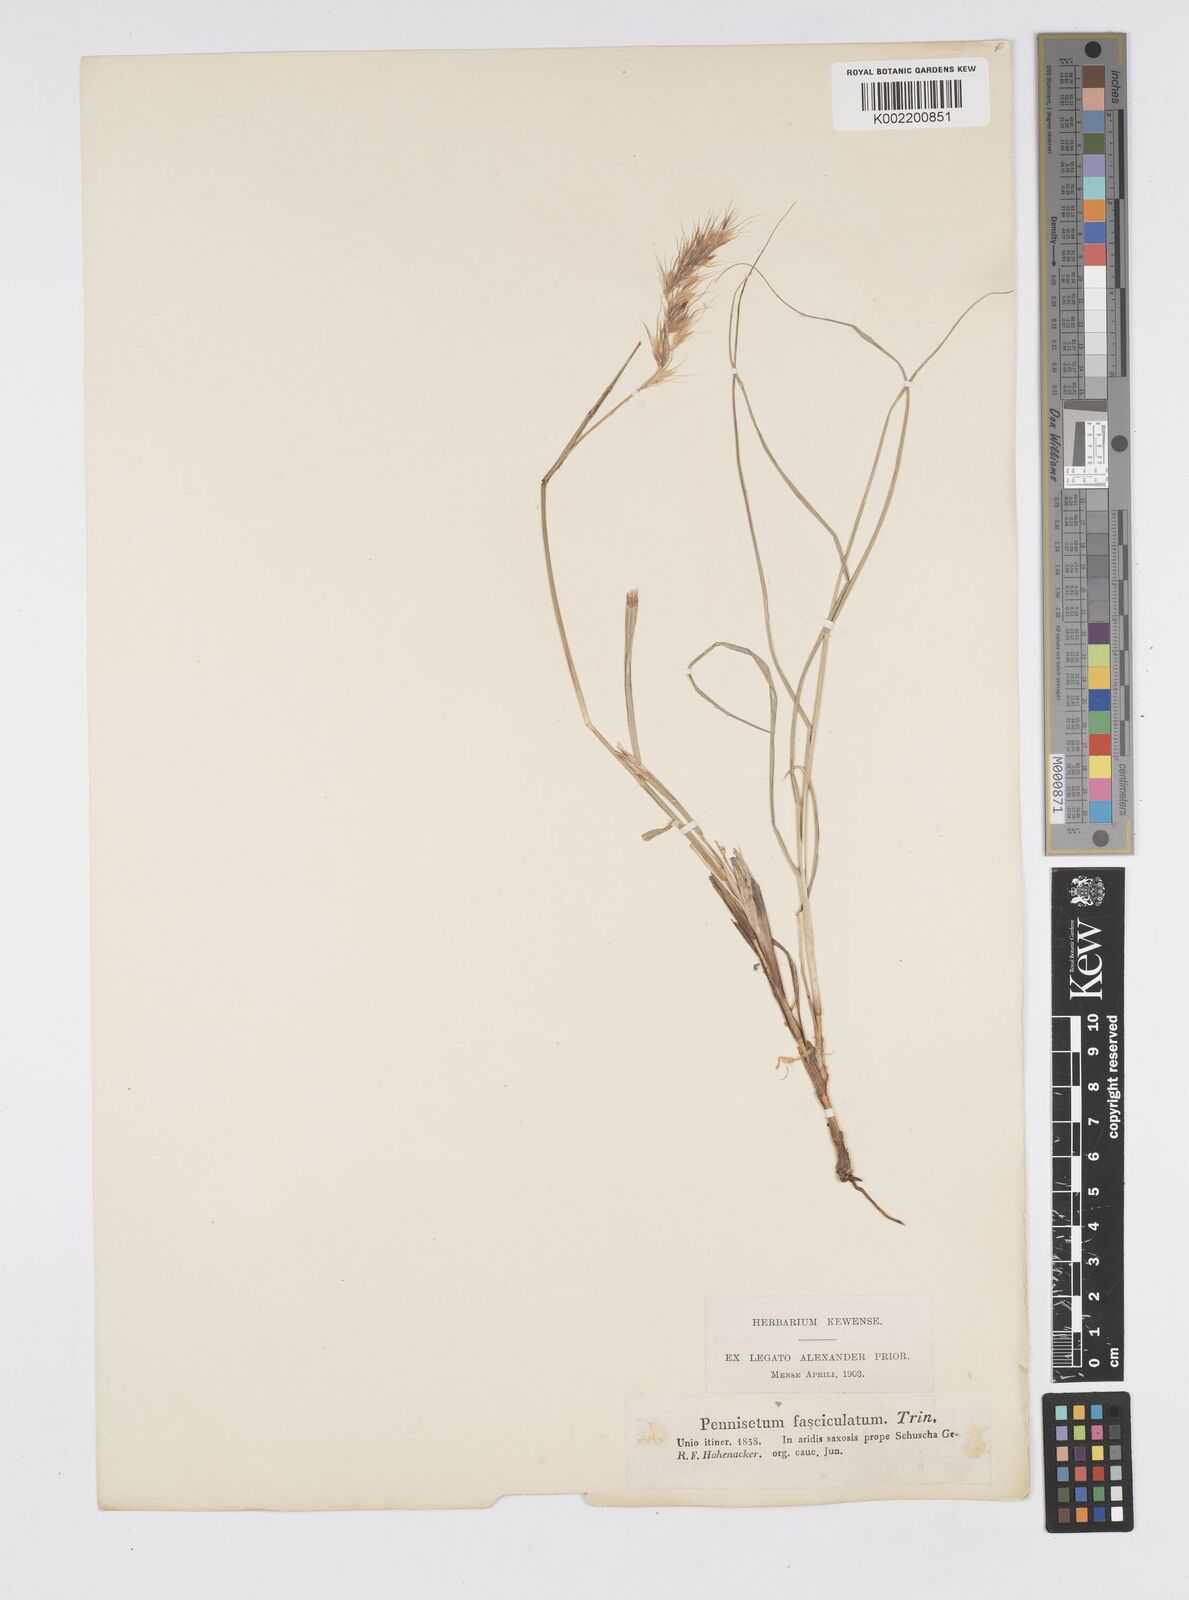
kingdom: Plantae
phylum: Tracheophyta
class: Liliopsida
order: Poales
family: Poaceae
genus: Cenchrus
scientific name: Cenchrus orientalis
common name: Oriental fountain grass
